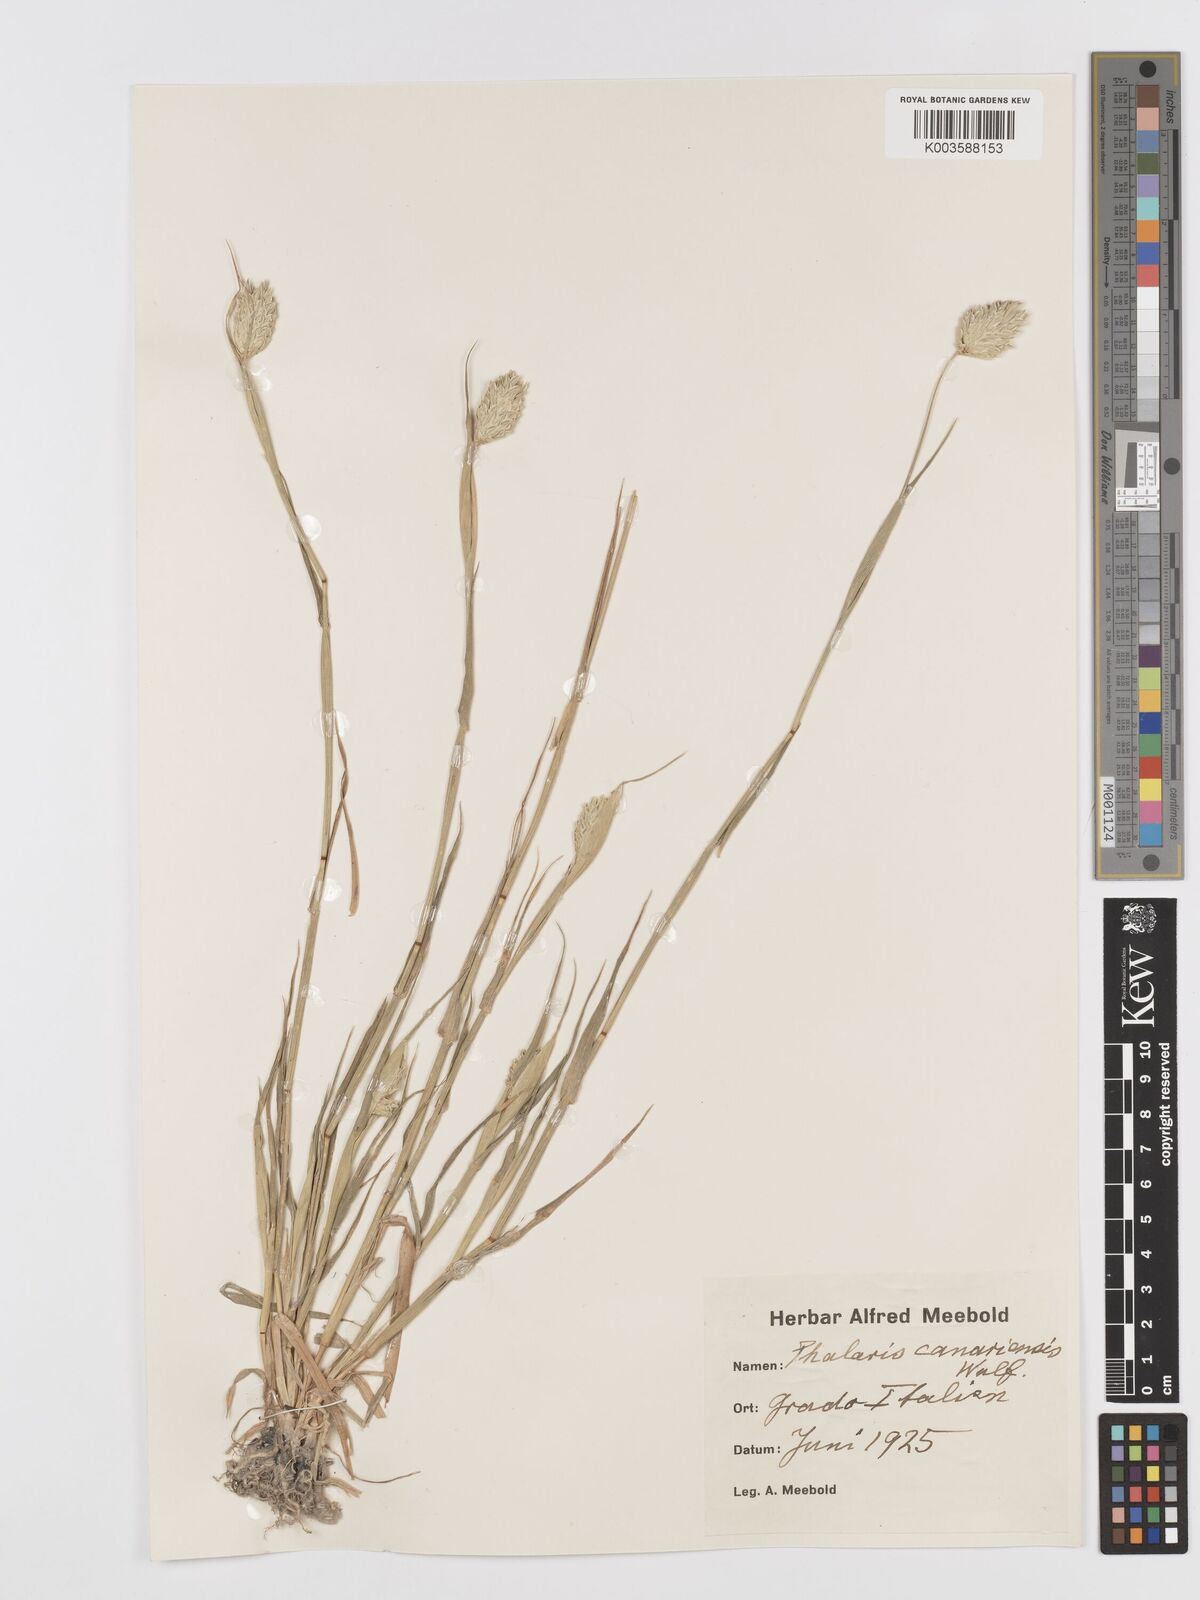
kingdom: Plantae
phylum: Tracheophyta
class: Liliopsida
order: Poales
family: Poaceae
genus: Phalaris
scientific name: Phalaris canariensis
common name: Annual canarygrass
